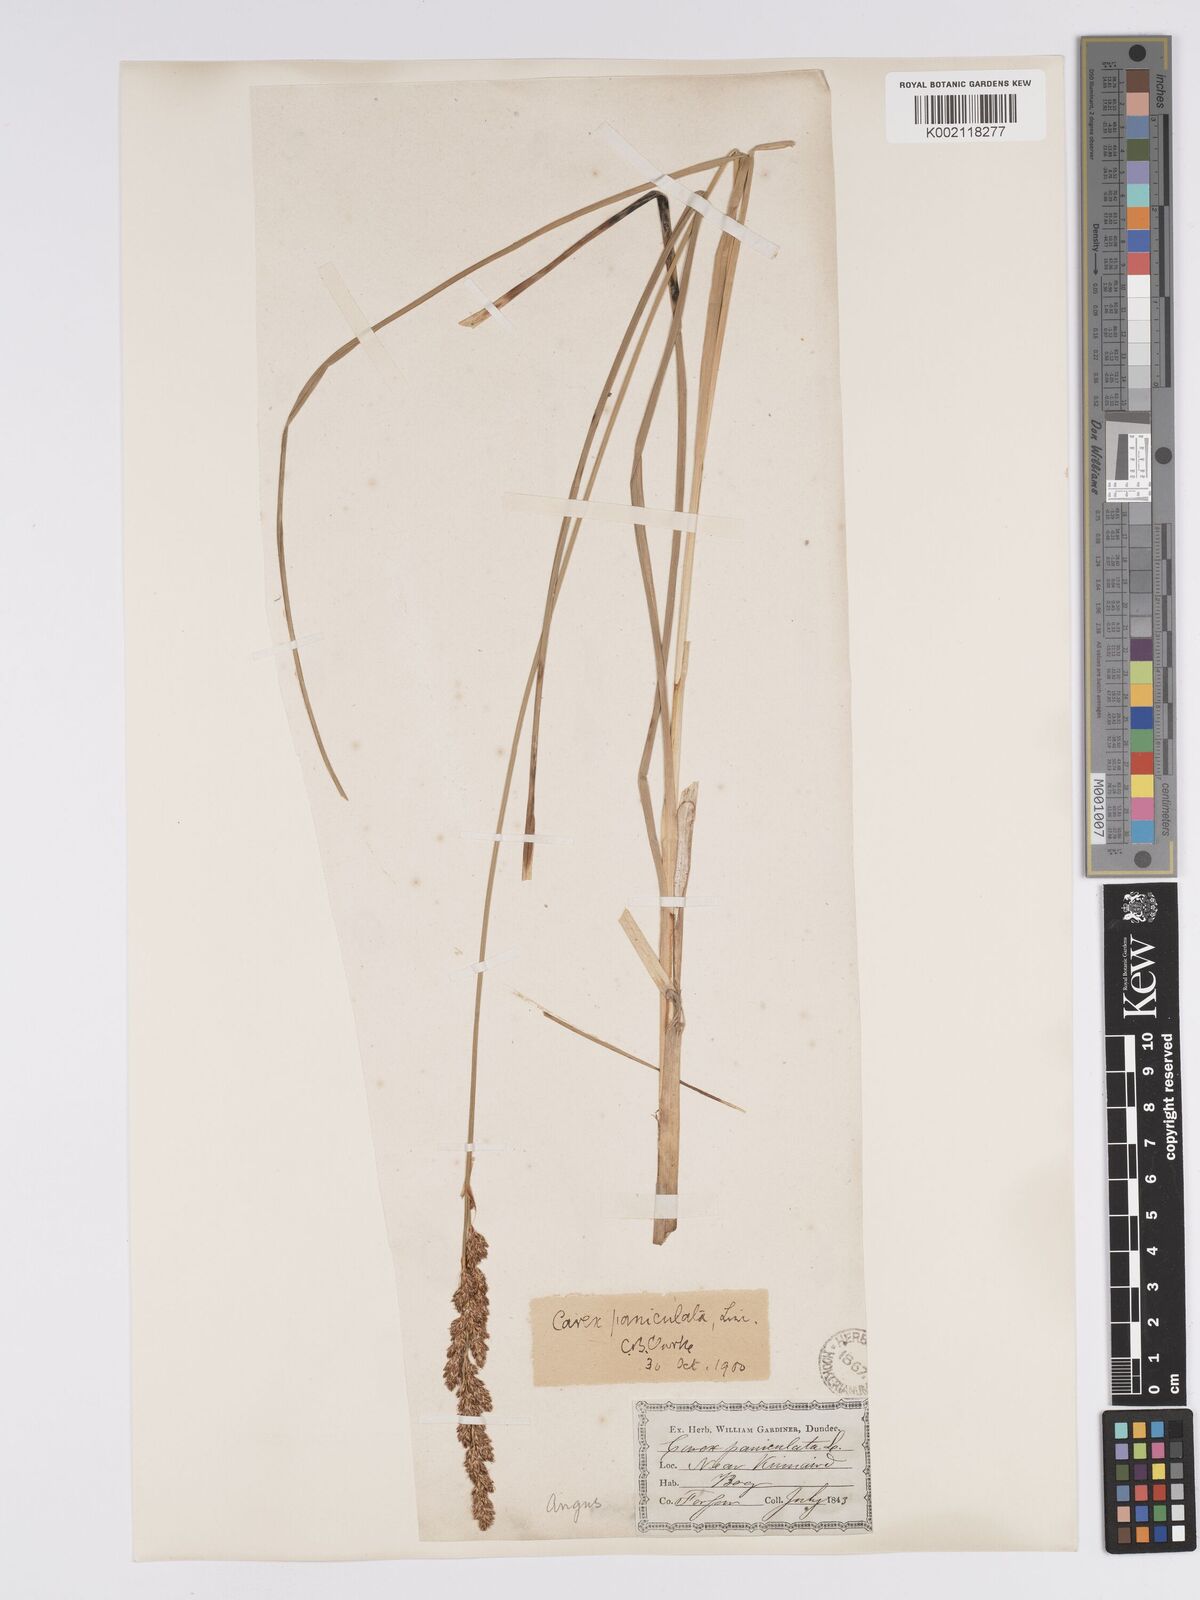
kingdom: Plantae
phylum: Tracheophyta
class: Liliopsida
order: Poales
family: Cyperaceae
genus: Carex
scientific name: Carex paniculata
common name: Greater tussock-sedge
